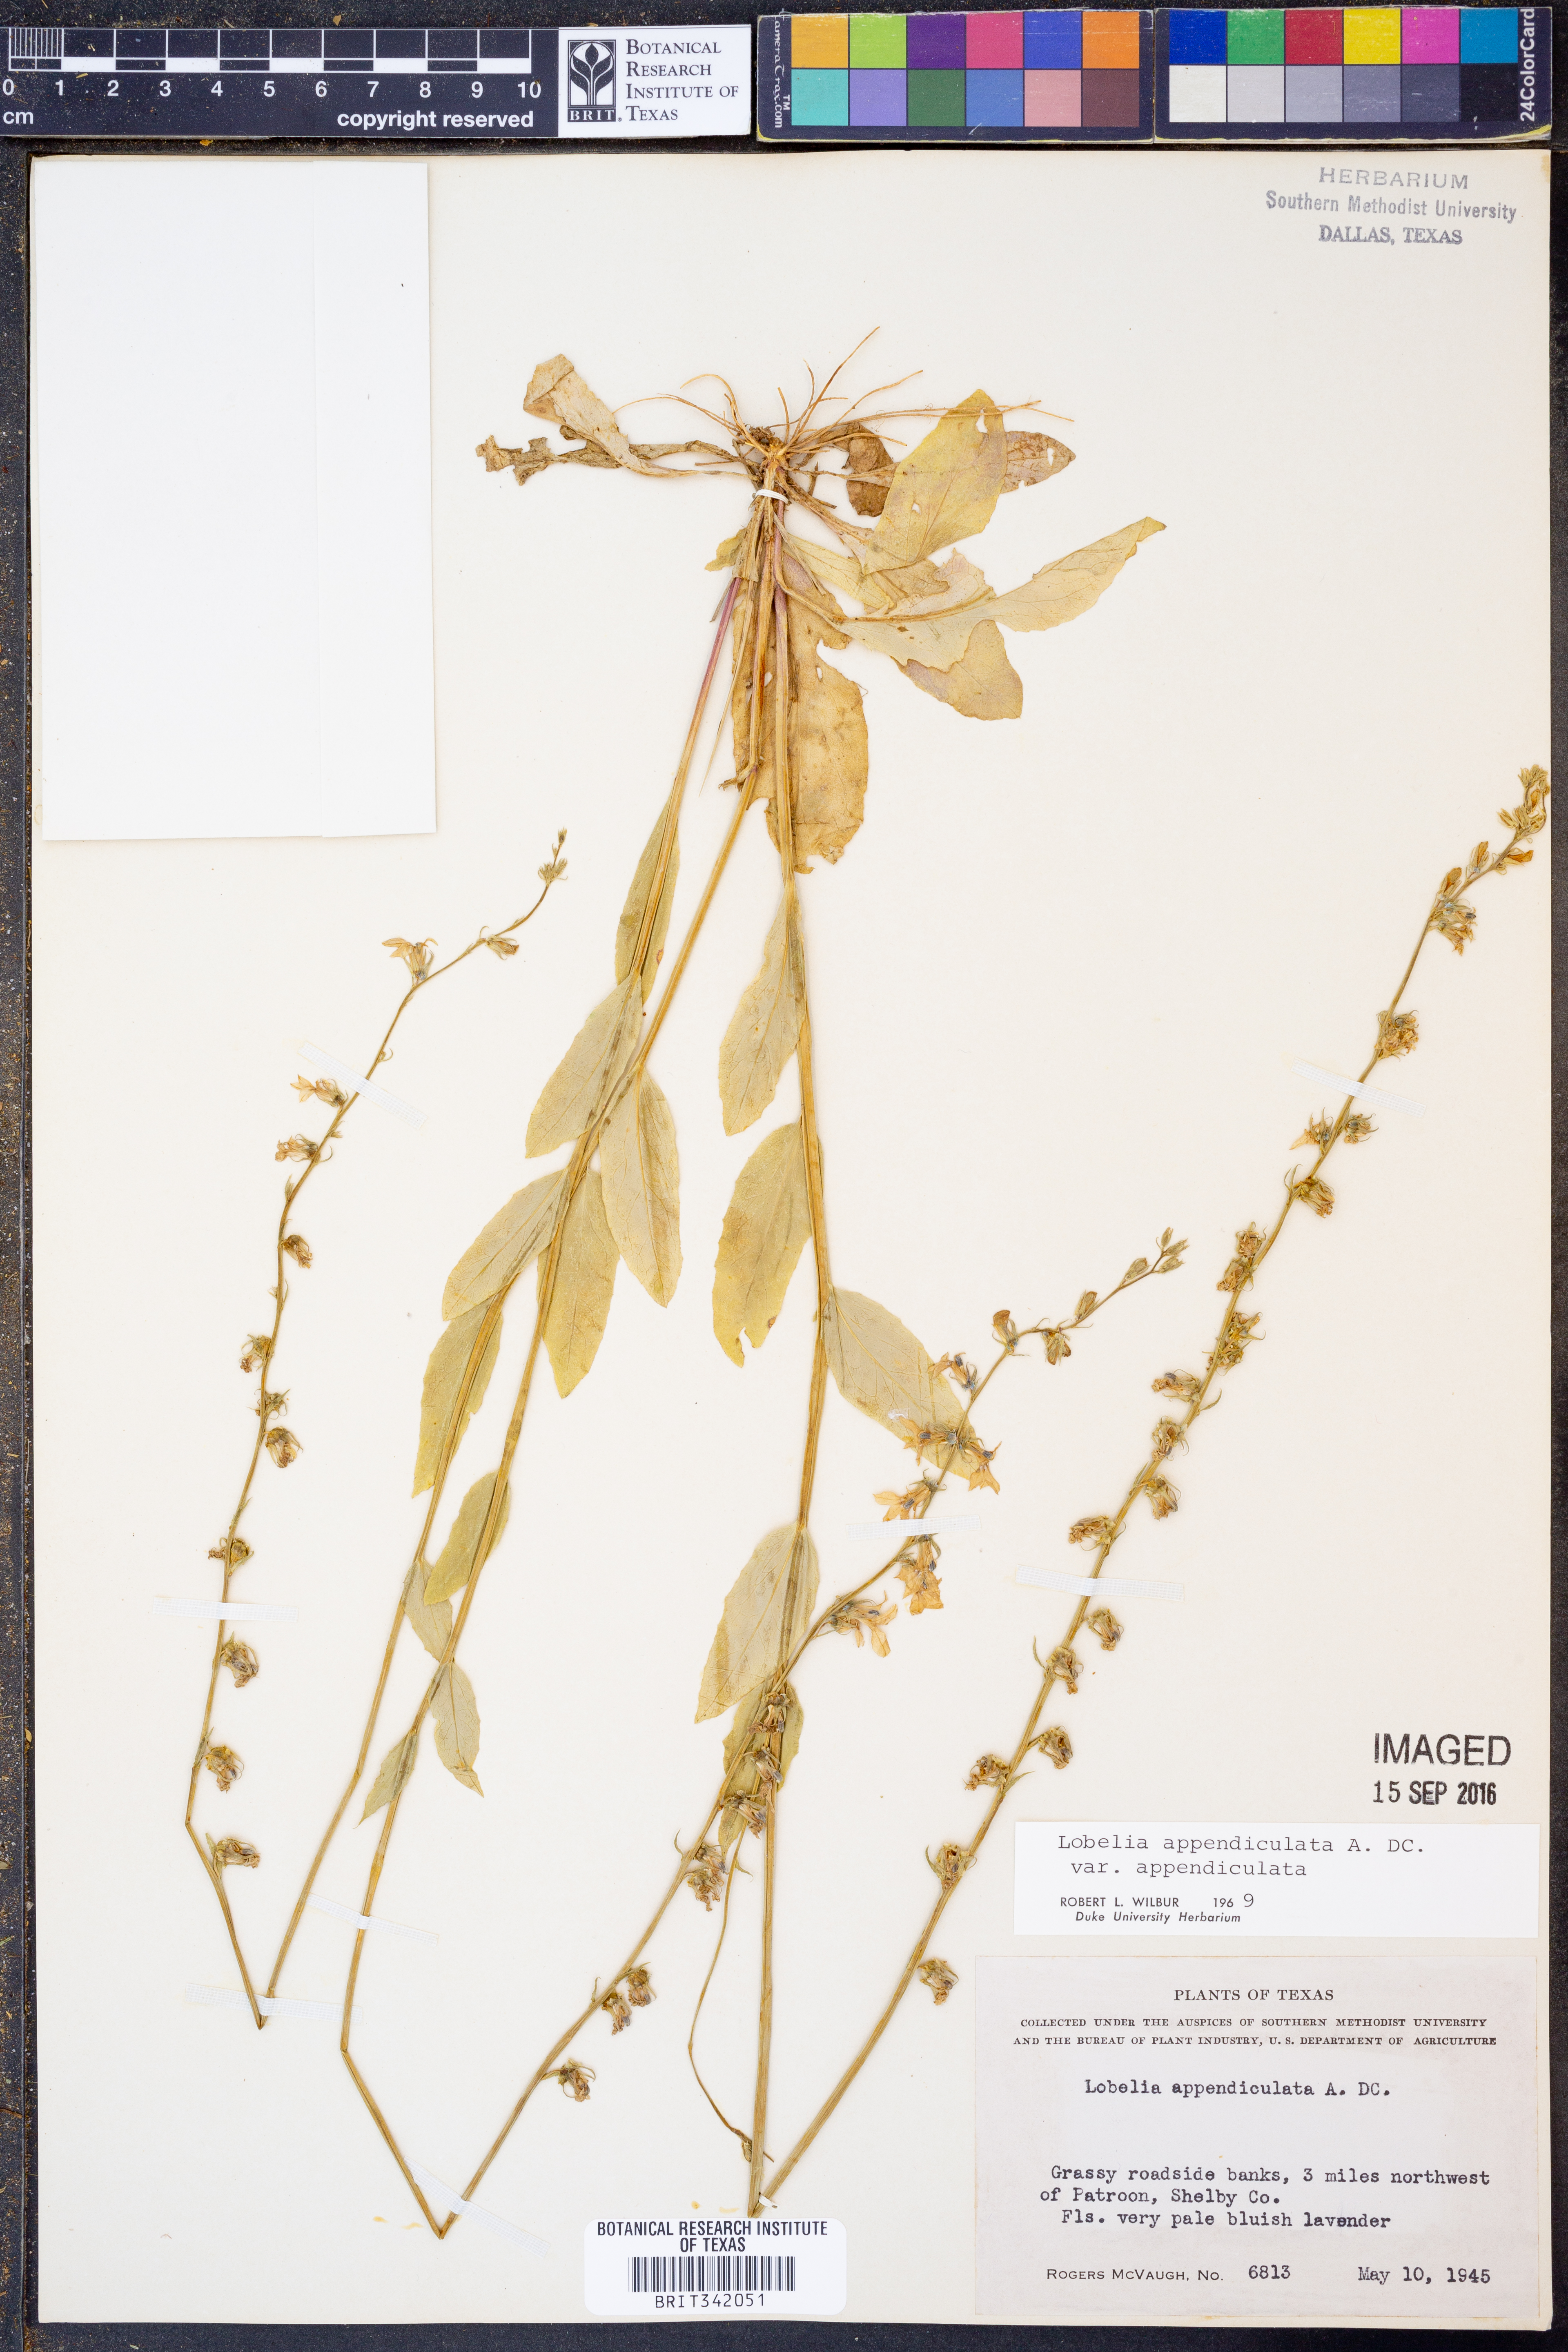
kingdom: Plantae
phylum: Tracheophyta
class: Magnoliopsida
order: Asterales
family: Campanulaceae
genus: Lobelia
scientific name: Lobelia appendiculata
